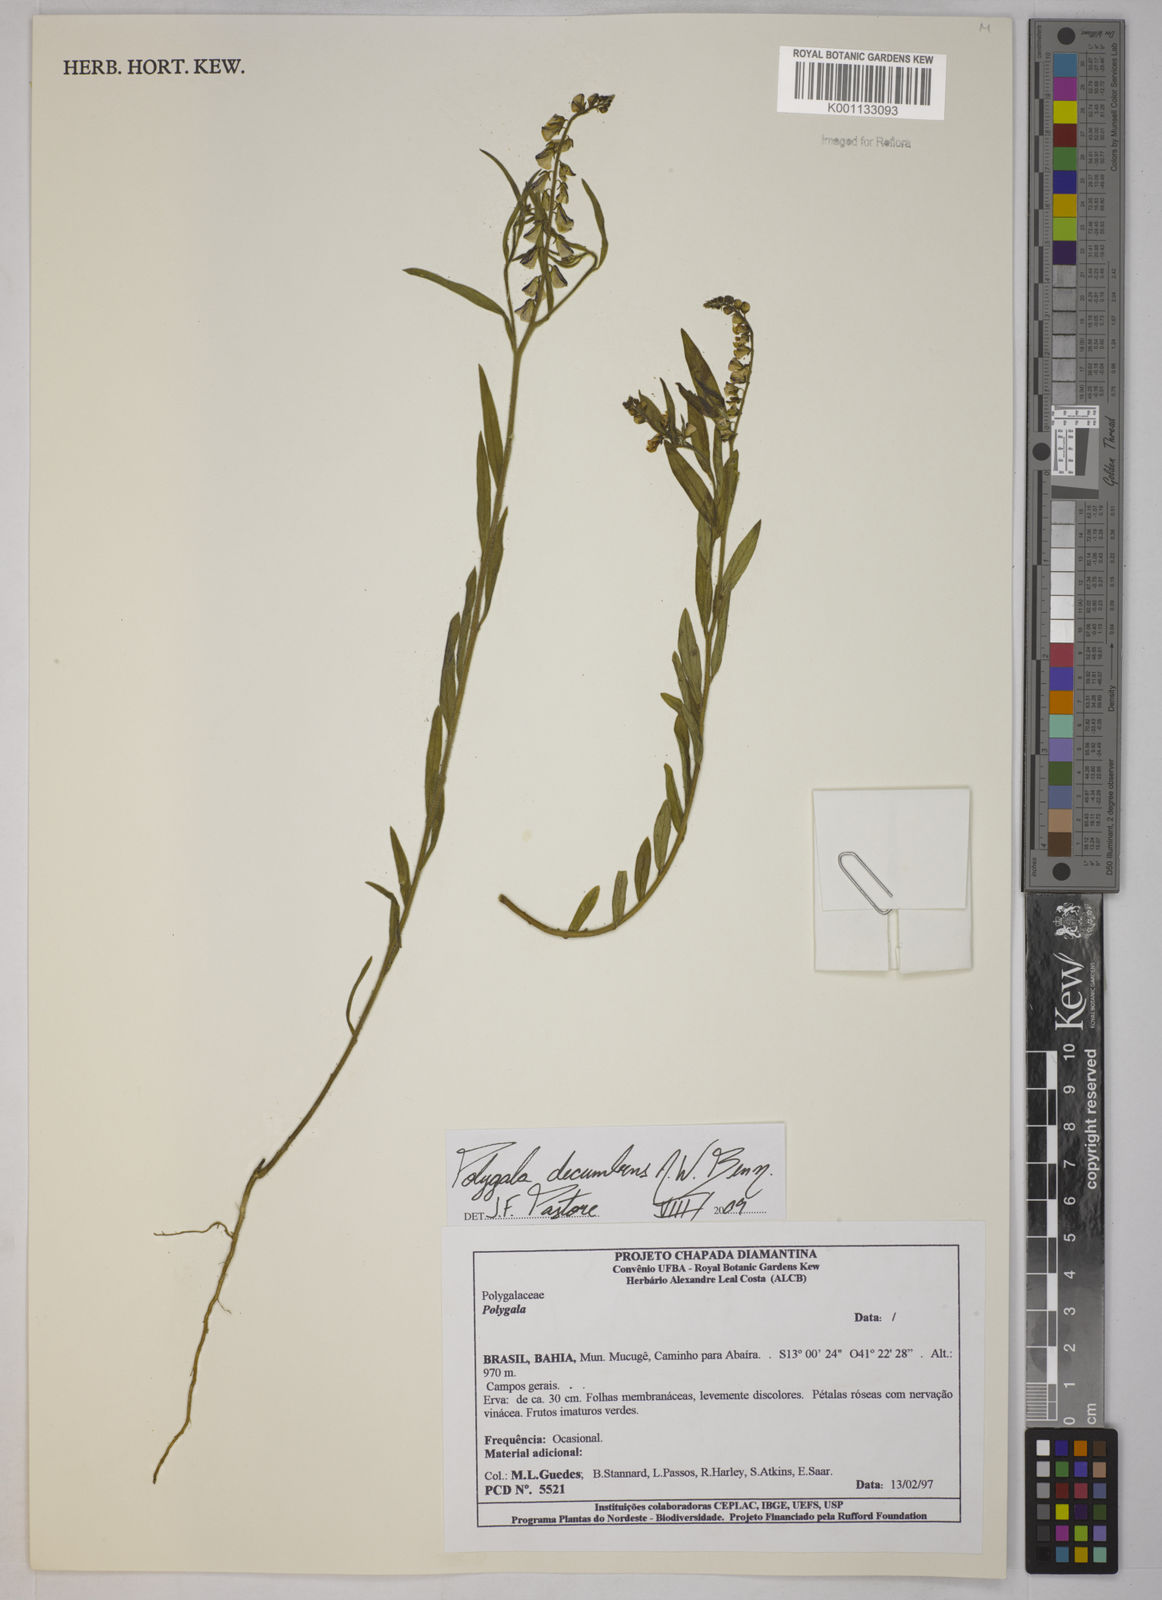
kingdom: Plantae
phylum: Tracheophyta
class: Magnoliopsida
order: Fabales
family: Polygalaceae
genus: Asemeia
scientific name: Asemeia ovata
